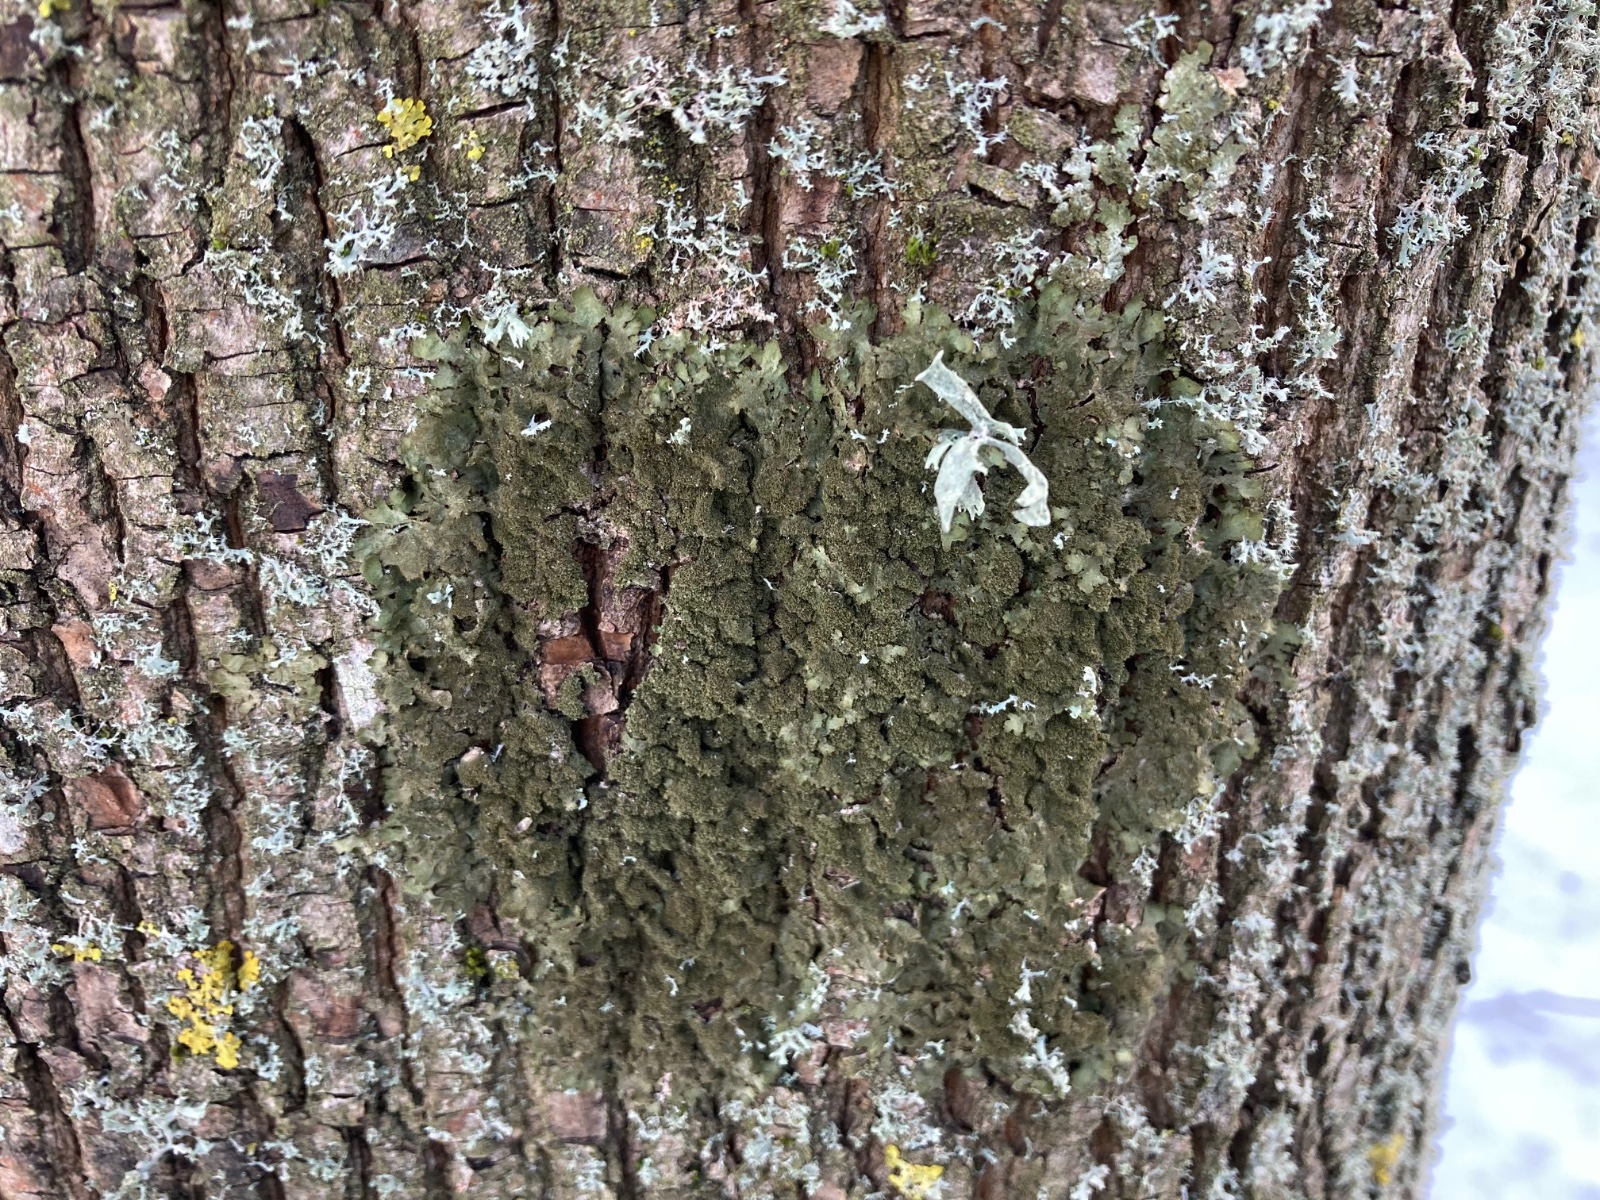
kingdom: Fungi
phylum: Ascomycota
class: Lecanoromycetes
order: Lecanorales
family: Parmeliaceae
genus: Melanelixia
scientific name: Melanelixia glabratula
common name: glinsende skållav
